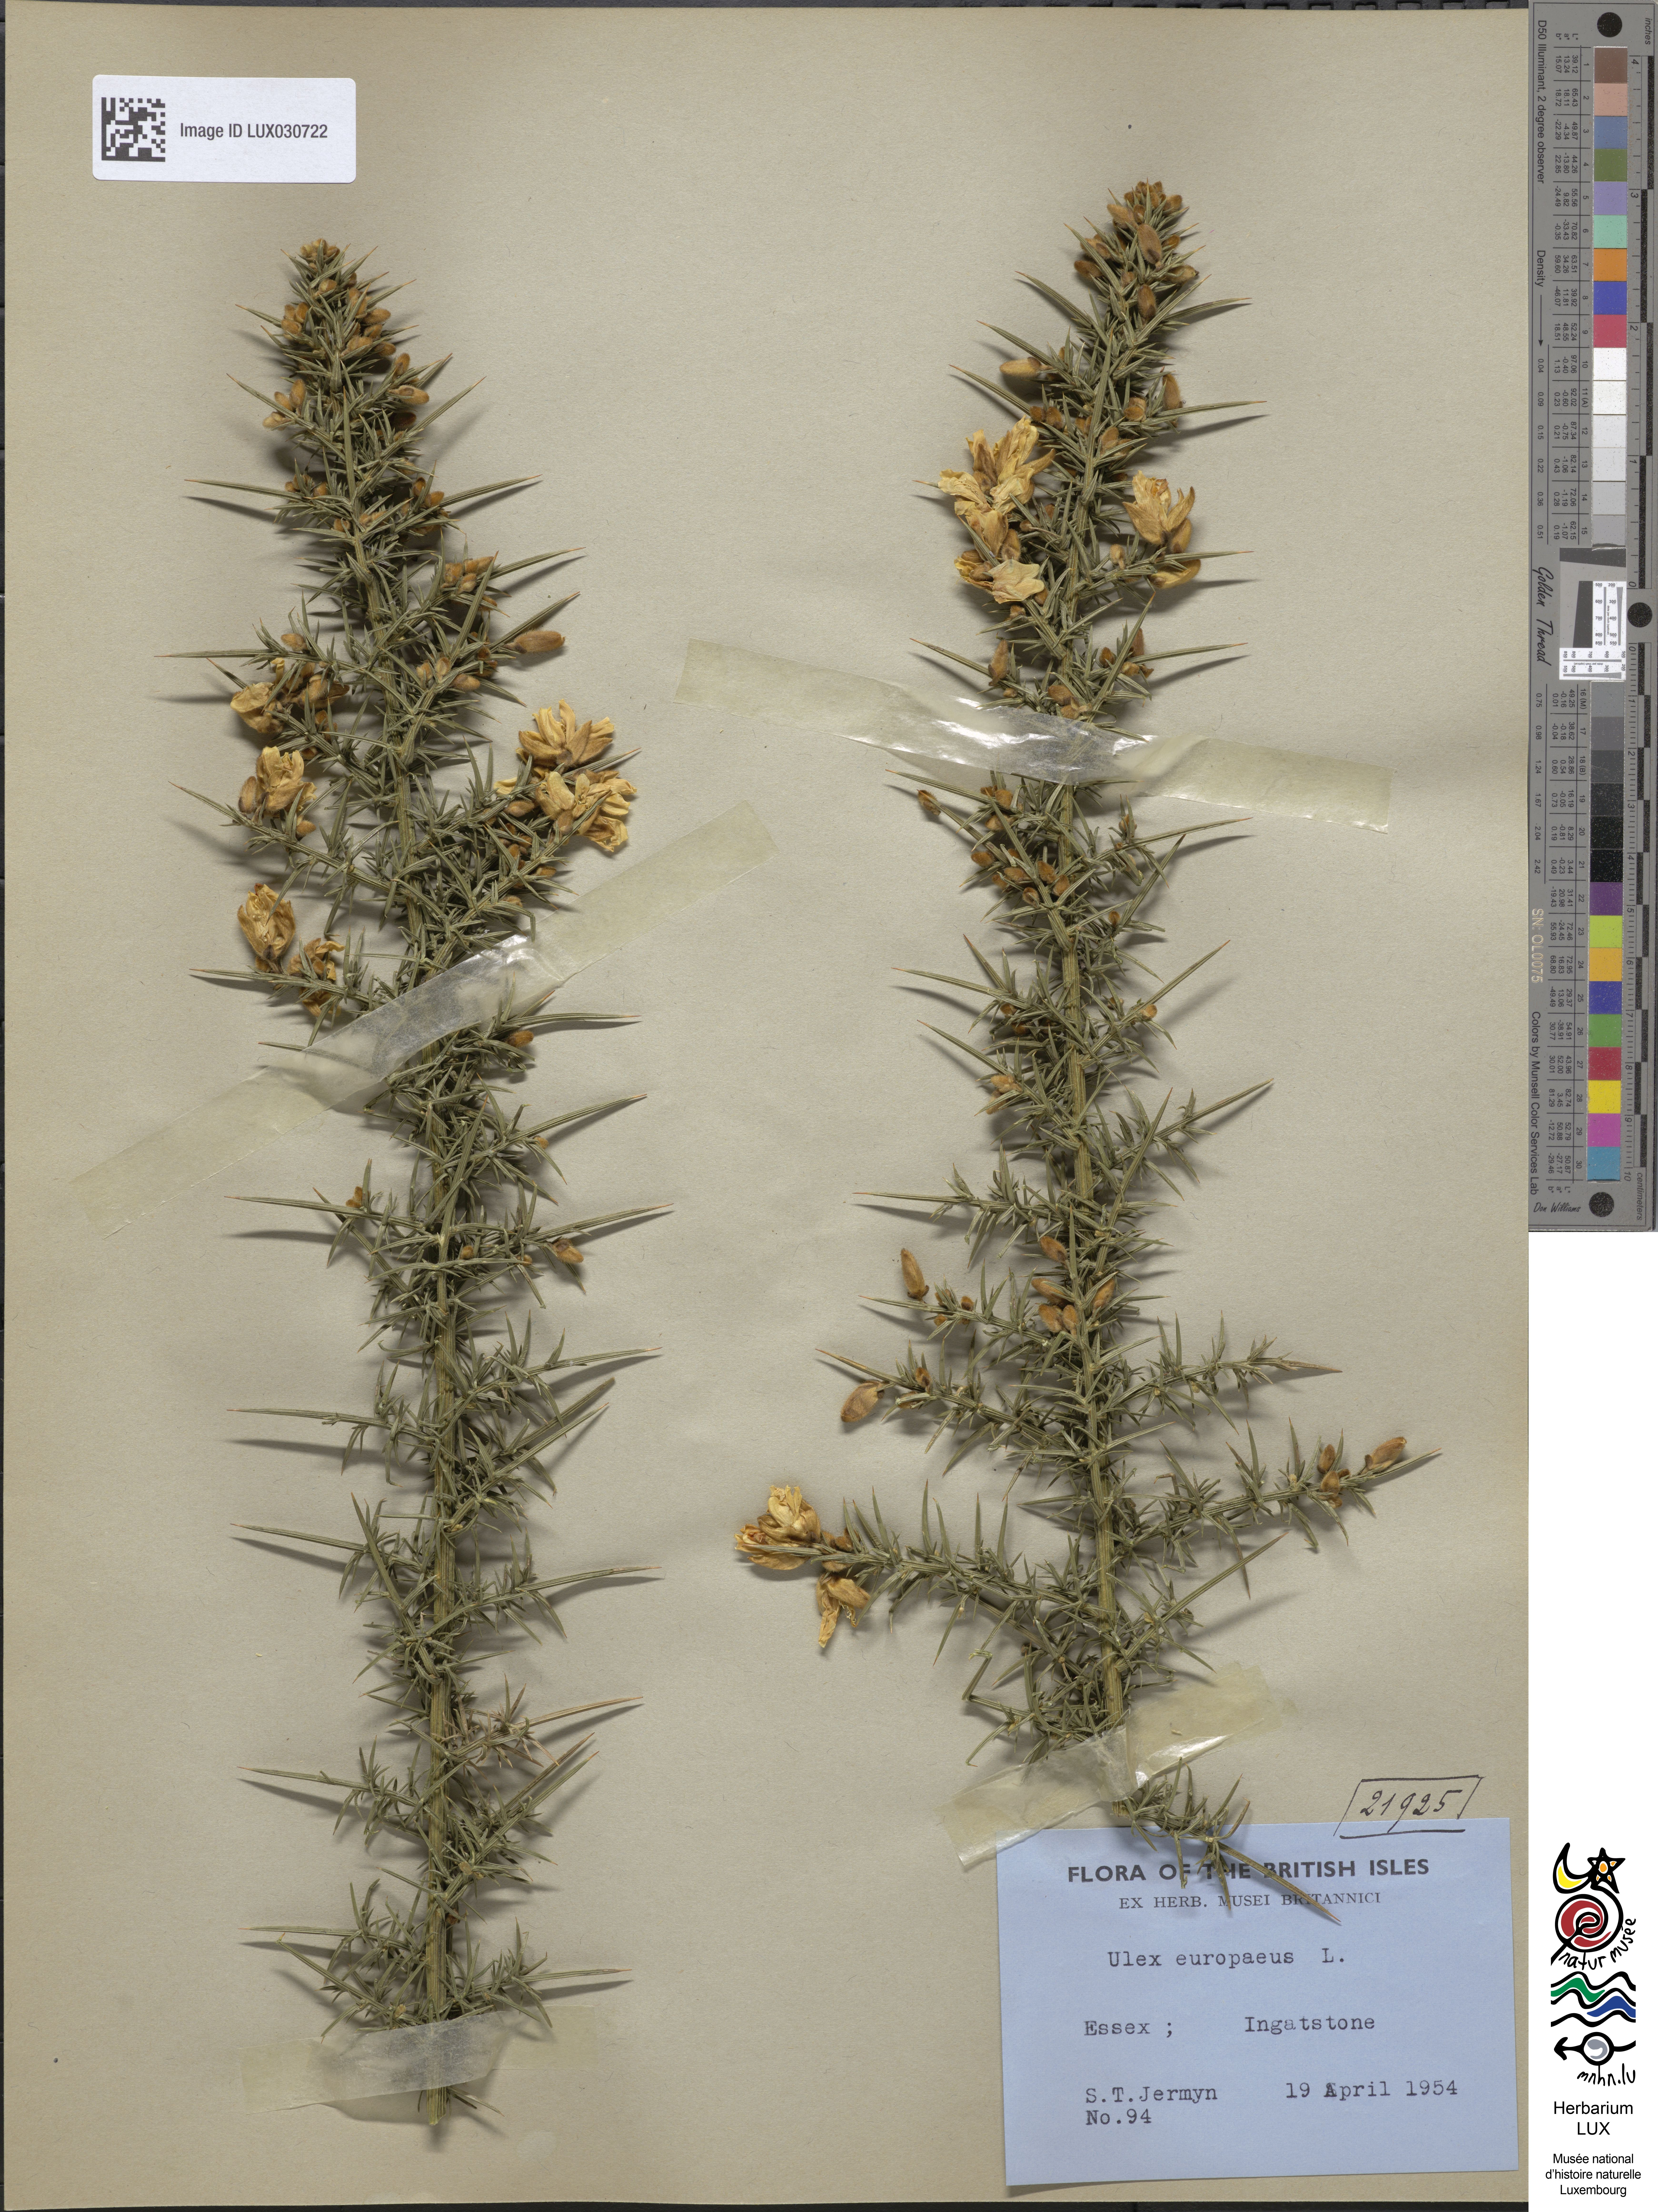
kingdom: Plantae
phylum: Tracheophyta
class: Magnoliopsida
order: Fabales
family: Fabaceae
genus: Ulex
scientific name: Ulex europaeus
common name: Common gorse
